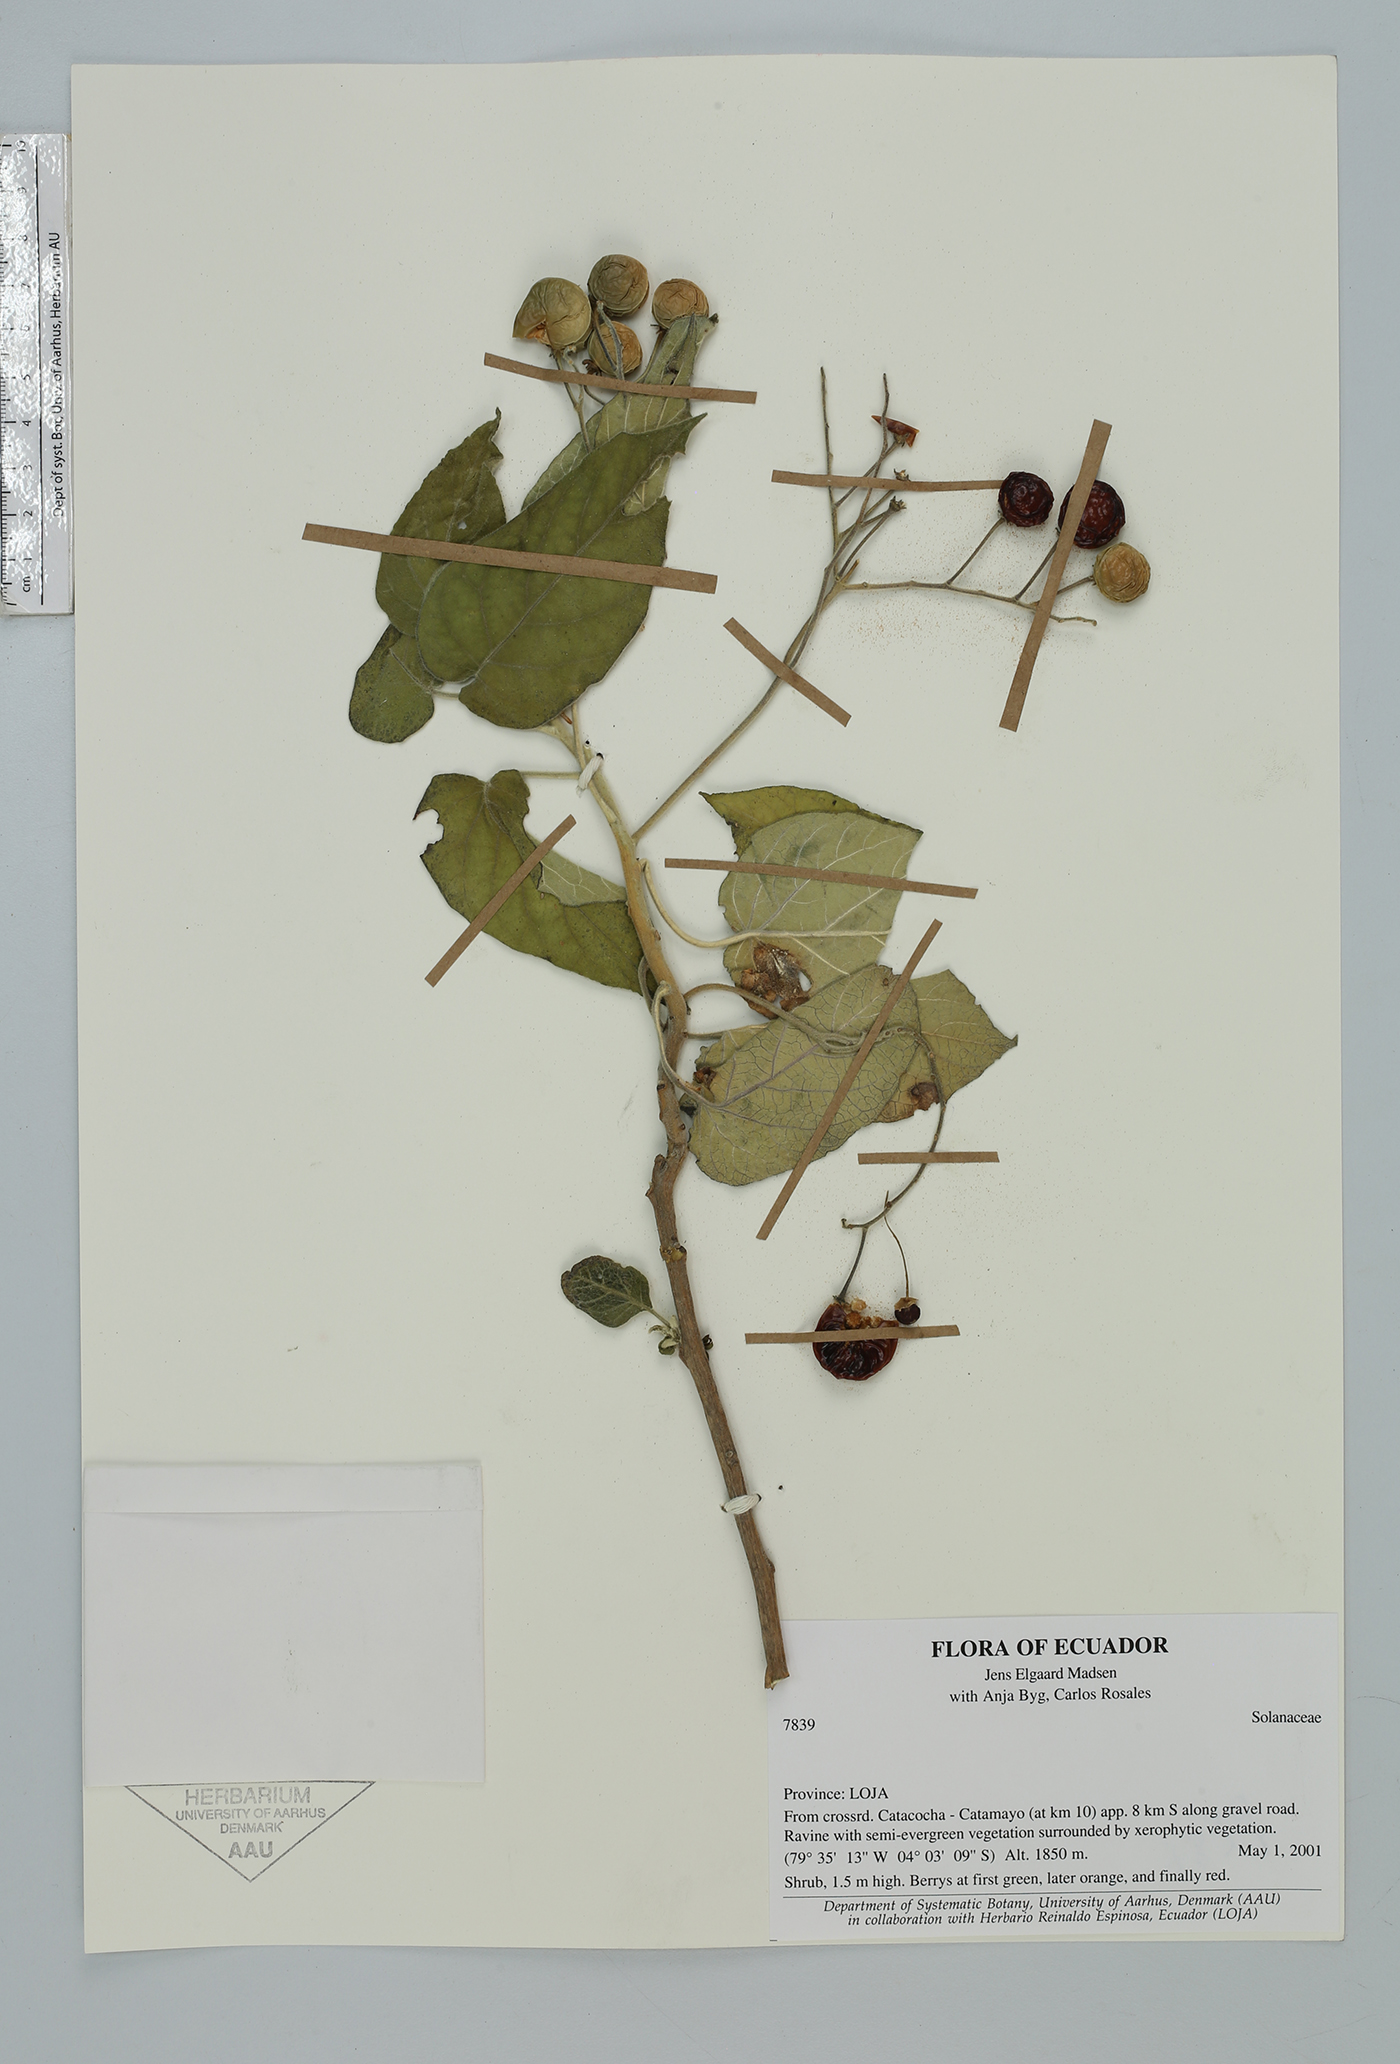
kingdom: Plantae
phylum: Tracheophyta
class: Magnoliopsida
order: Solanales
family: Solanaceae
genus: Solanum
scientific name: Solanum
